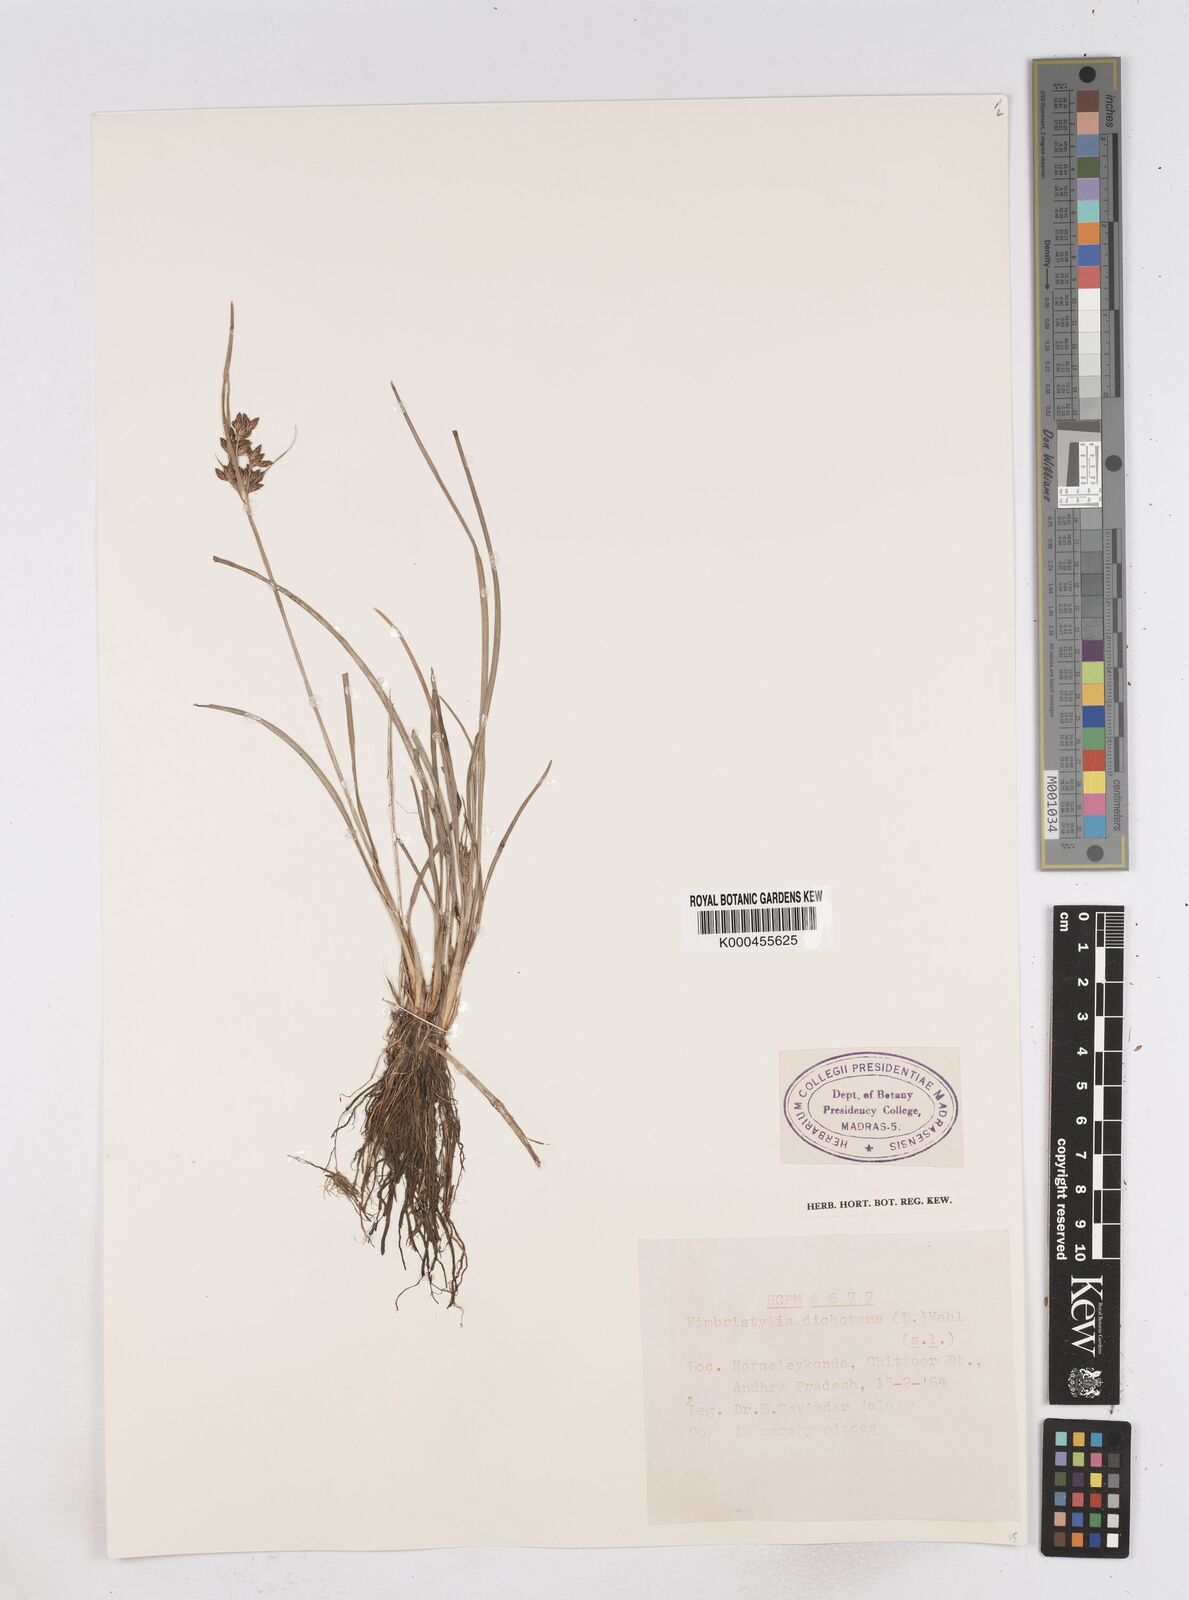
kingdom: Plantae
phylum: Tracheophyta
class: Liliopsida
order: Poales
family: Cyperaceae
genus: Fimbristylis
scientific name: Fimbristylis dichotoma
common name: Forked fimbry
